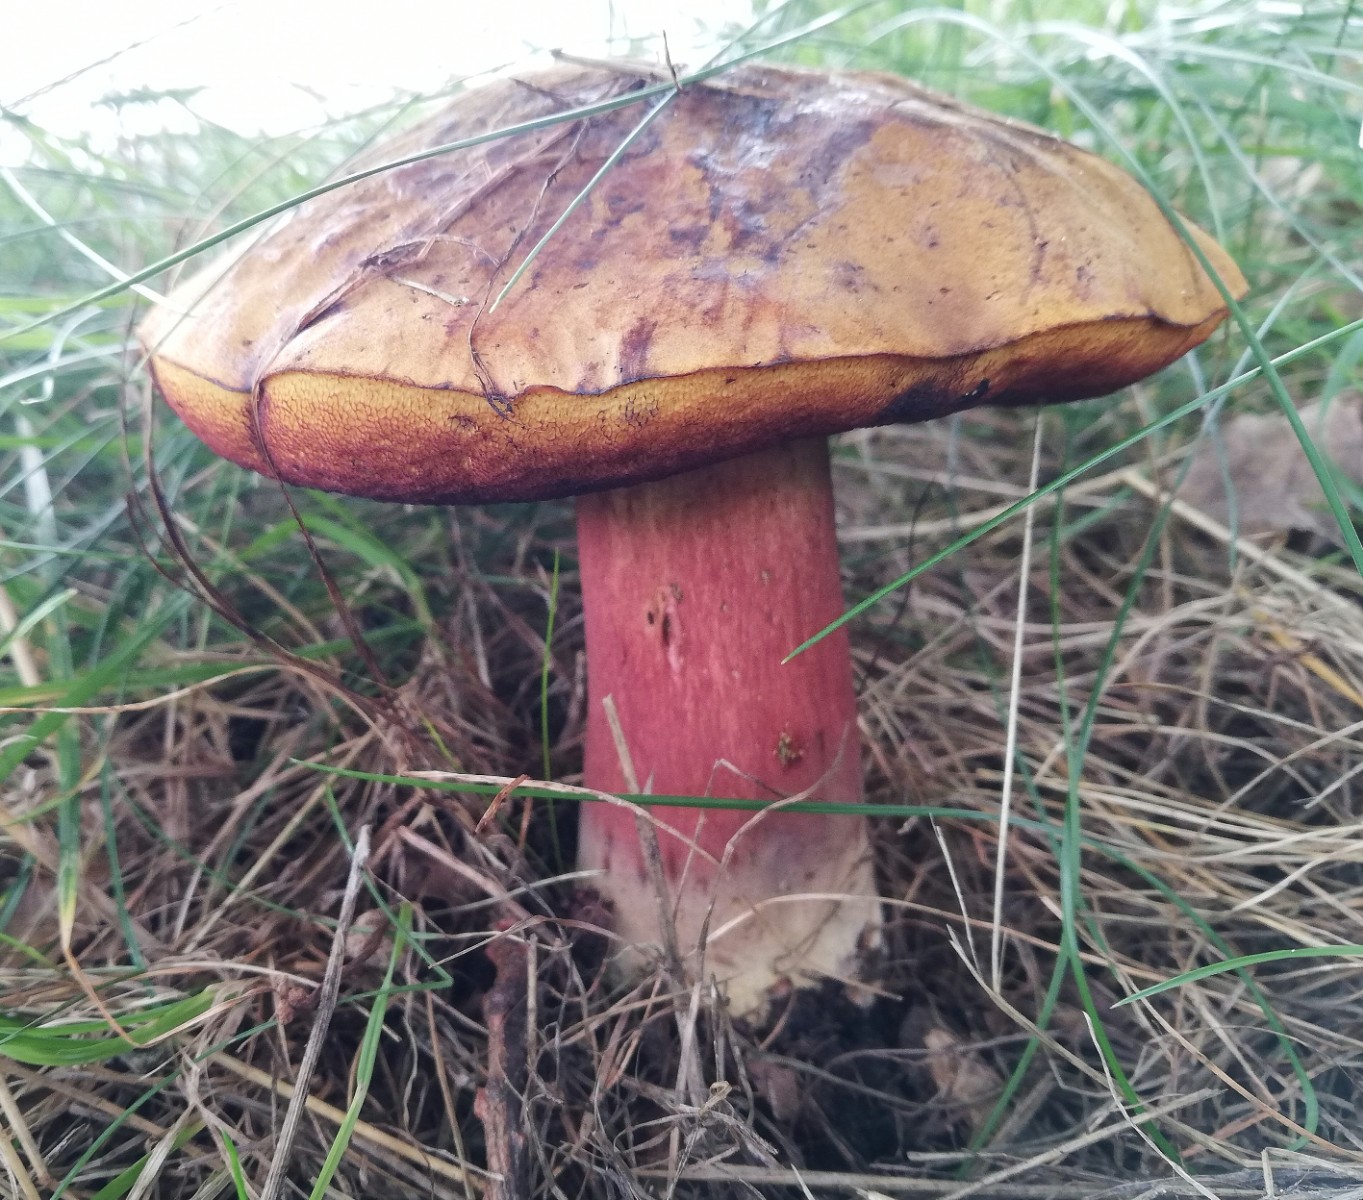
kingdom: Fungi
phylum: Basidiomycota
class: Agaricomycetes
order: Boletales
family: Boletaceae
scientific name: Boletaceae
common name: rørhatfamilien
